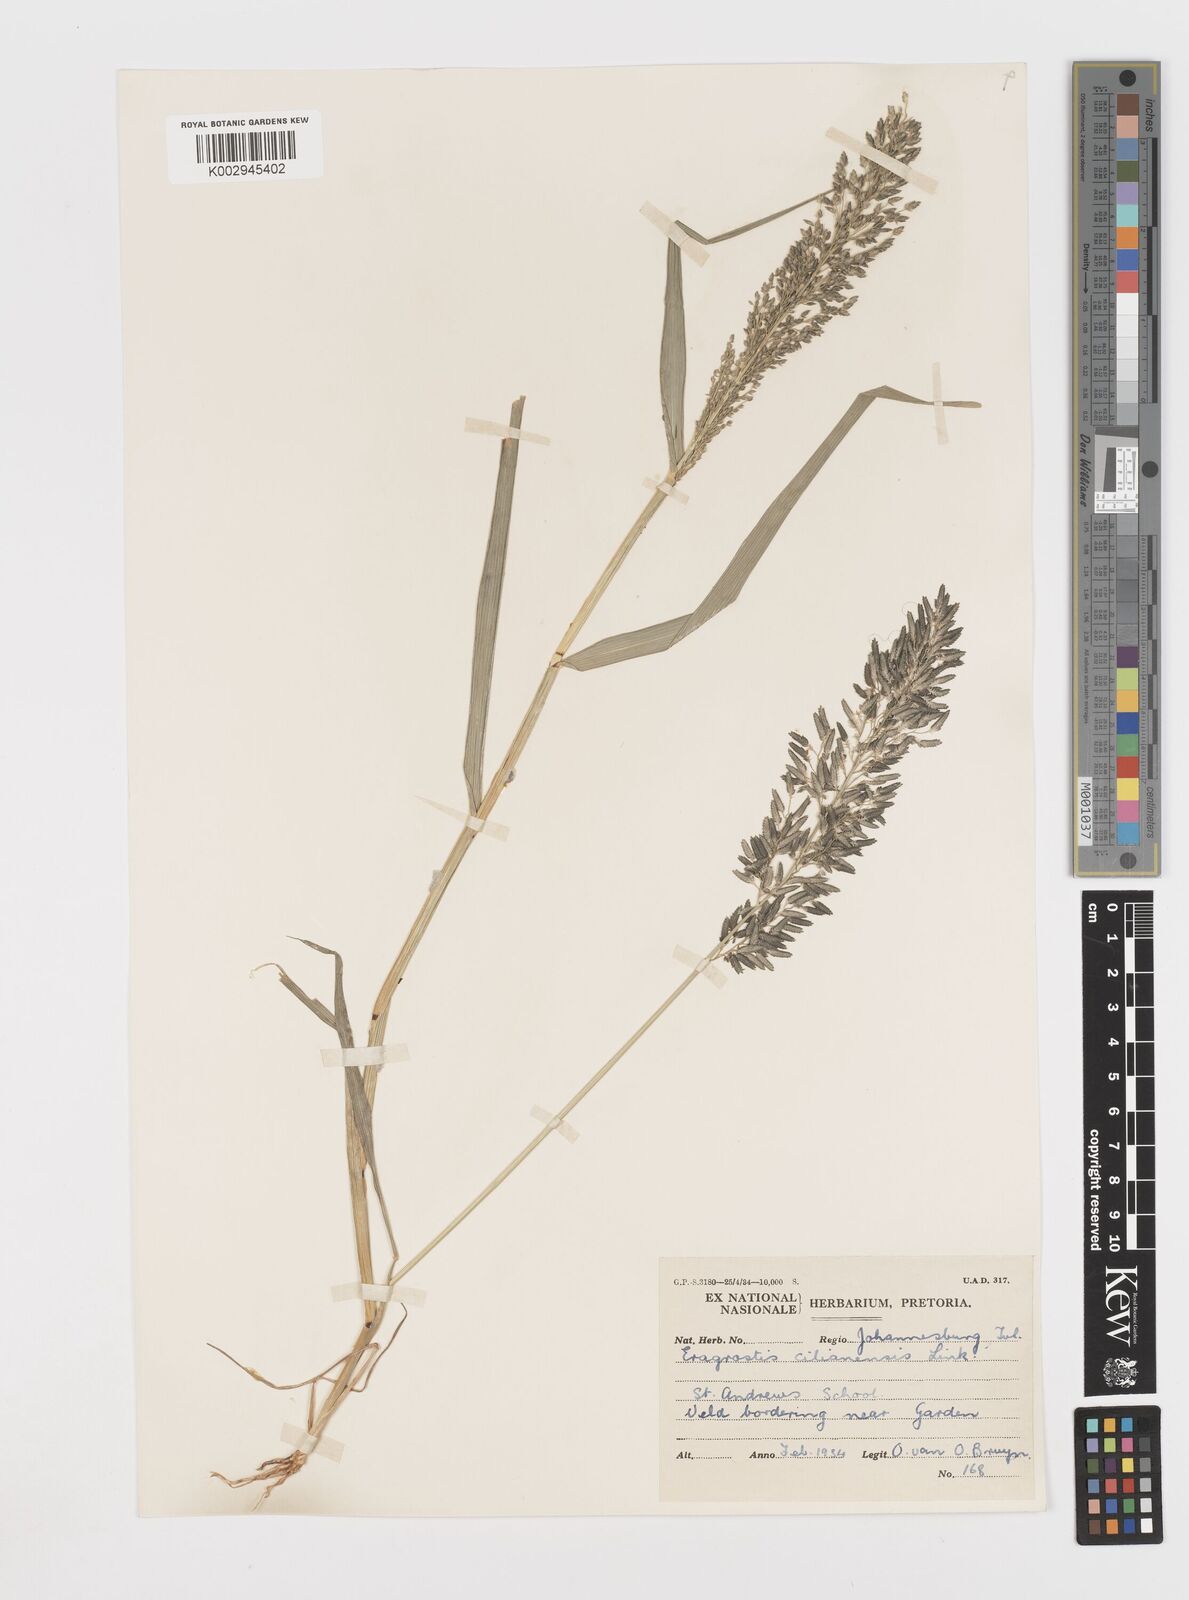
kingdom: Plantae
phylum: Tracheophyta
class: Liliopsida
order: Poales
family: Poaceae
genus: Eragrostis
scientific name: Eragrostis cilianensis
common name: Stinkgrass
